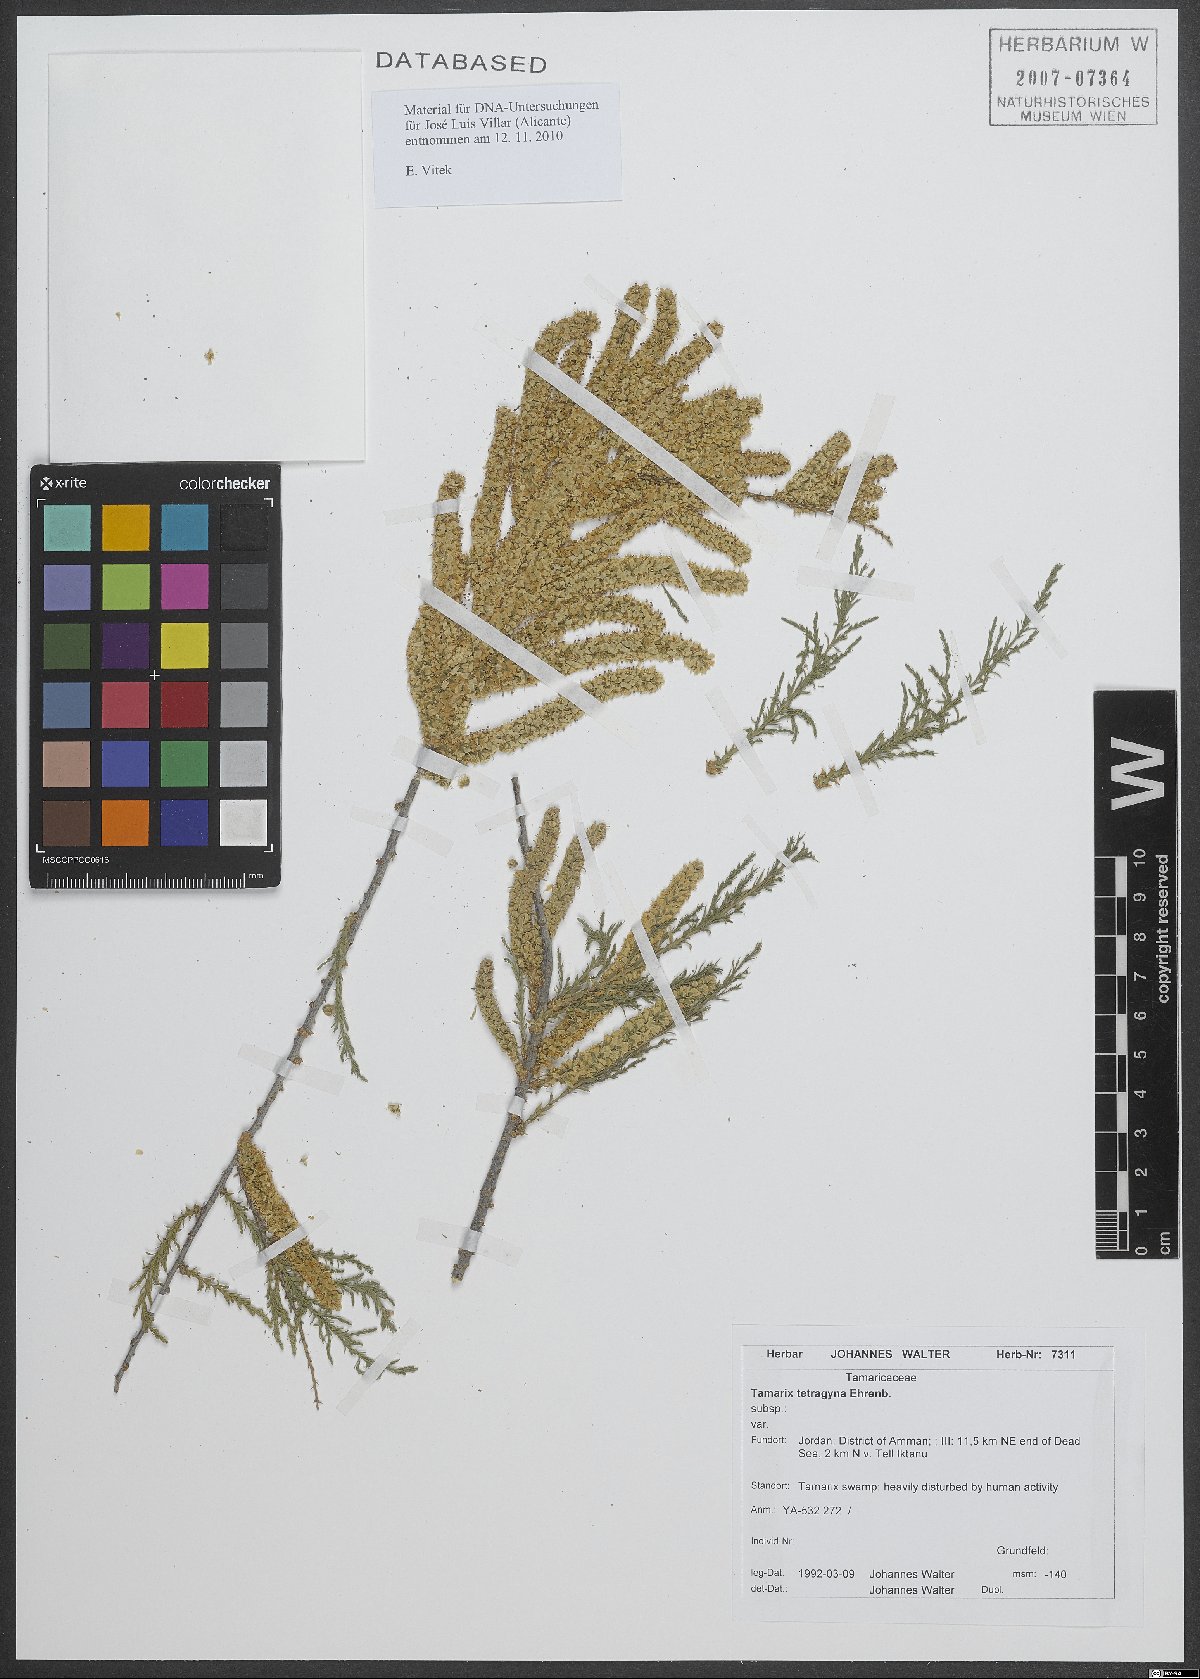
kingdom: Plantae
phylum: Tracheophyta
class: Magnoliopsida
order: Caryophyllales
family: Tamaricaceae
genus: Tamarix
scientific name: Tamarix tetragyna
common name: Four-stamen tamarisk
